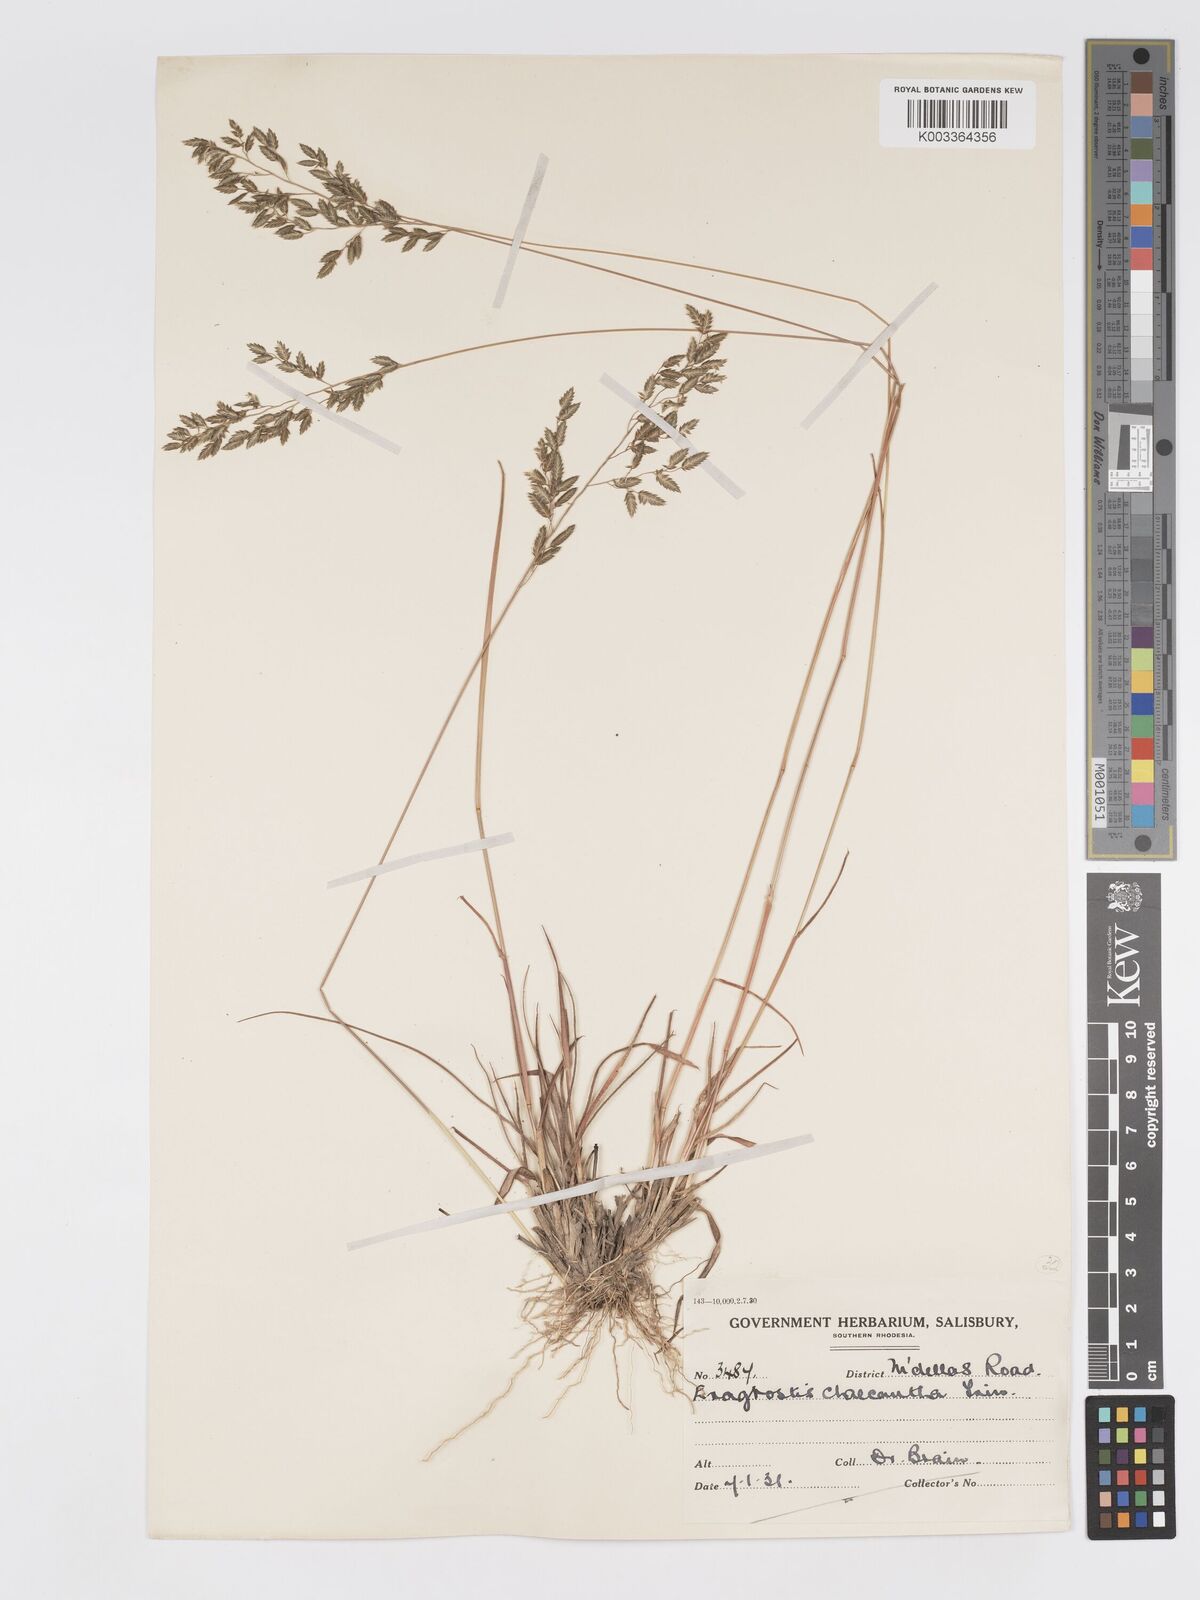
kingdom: Plantae
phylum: Tracheophyta
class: Liliopsida
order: Poales
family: Poaceae
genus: Eragrostis
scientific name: Eragrostis racemosa
